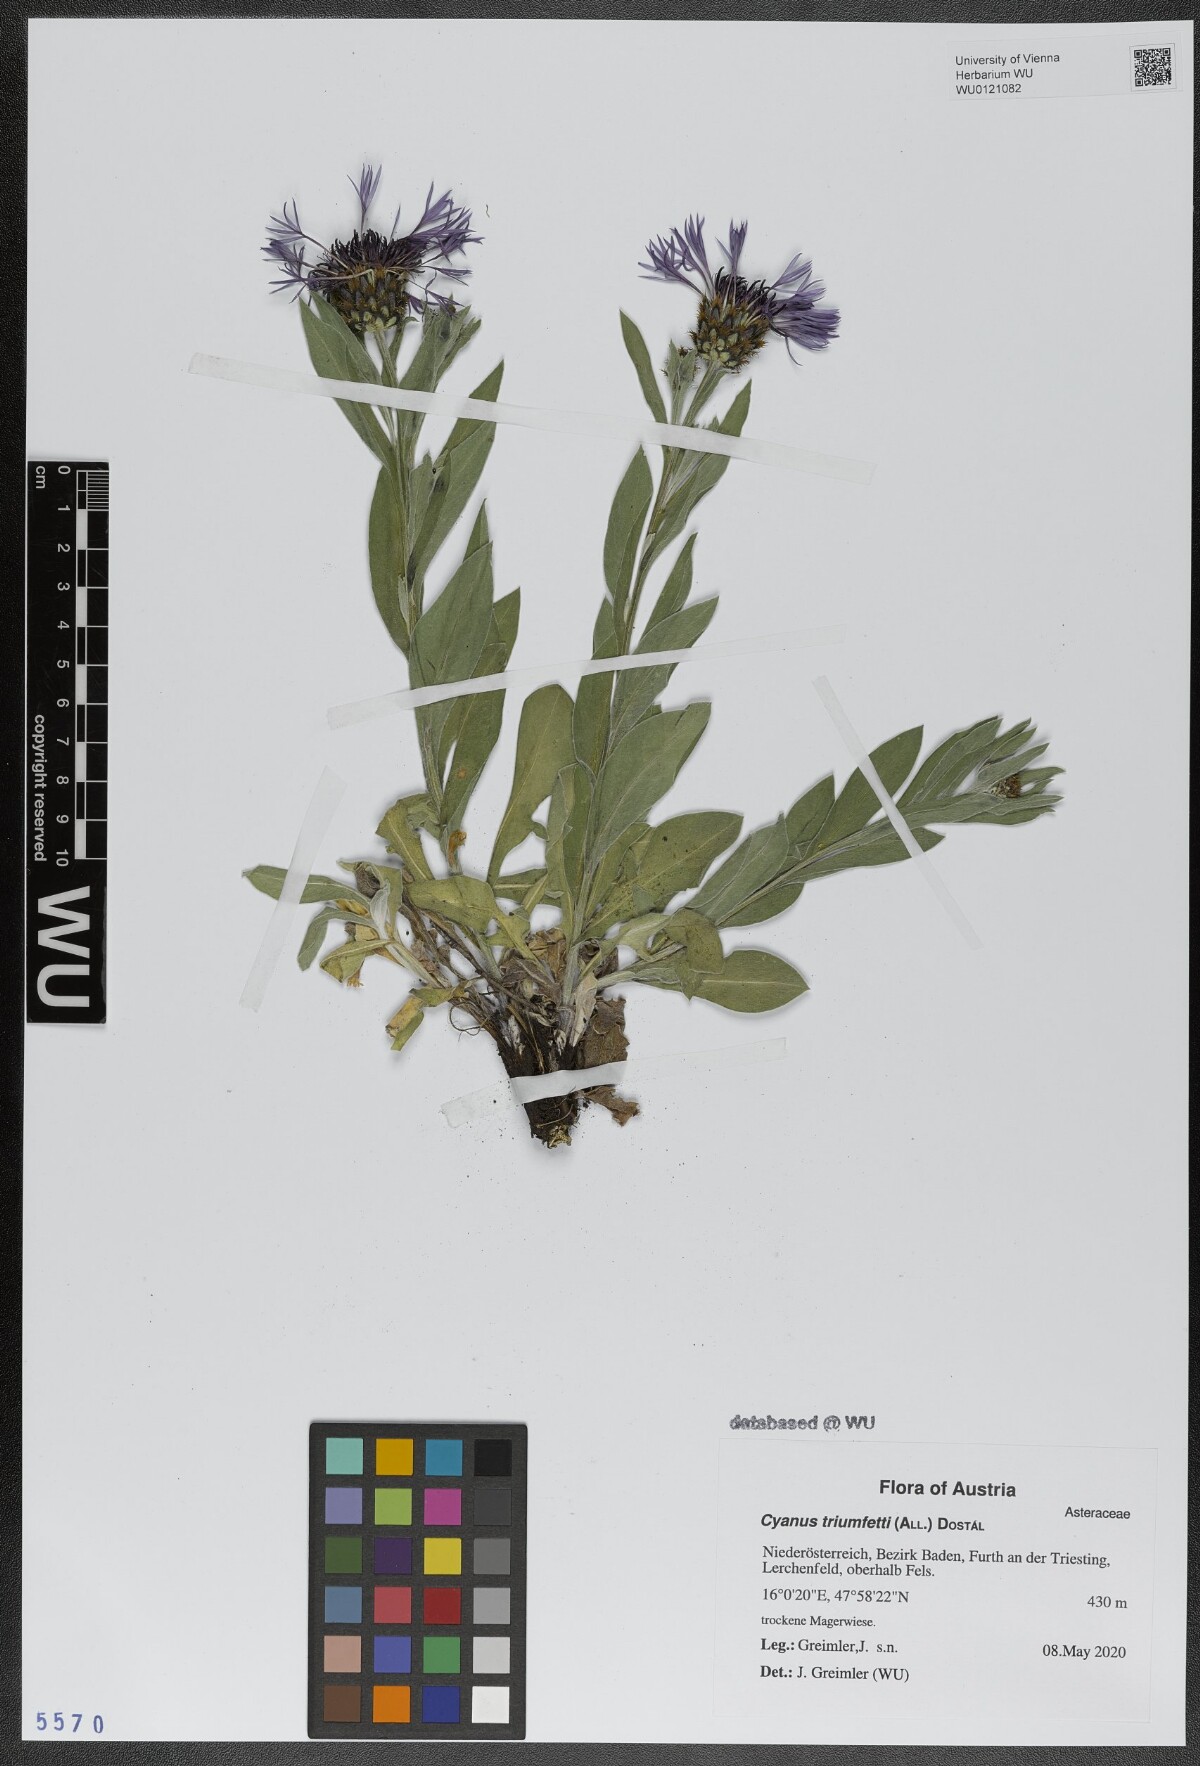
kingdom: Plantae
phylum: Tracheophyta
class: Magnoliopsida
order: Asterales
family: Asteraceae
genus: Centaurea
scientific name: Centaurea triumfettii
